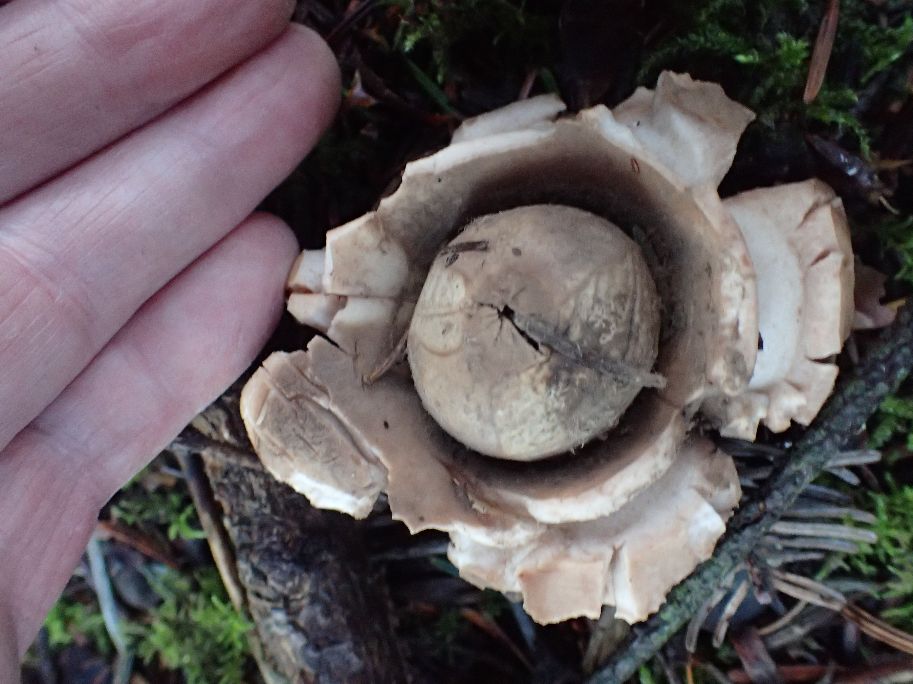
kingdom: Fungi
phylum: Basidiomycota
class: Agaricomycetes
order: Geastrales
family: Geastraceae
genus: Geastrum
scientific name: Geastrum michelianum
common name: kødet stjernebold
